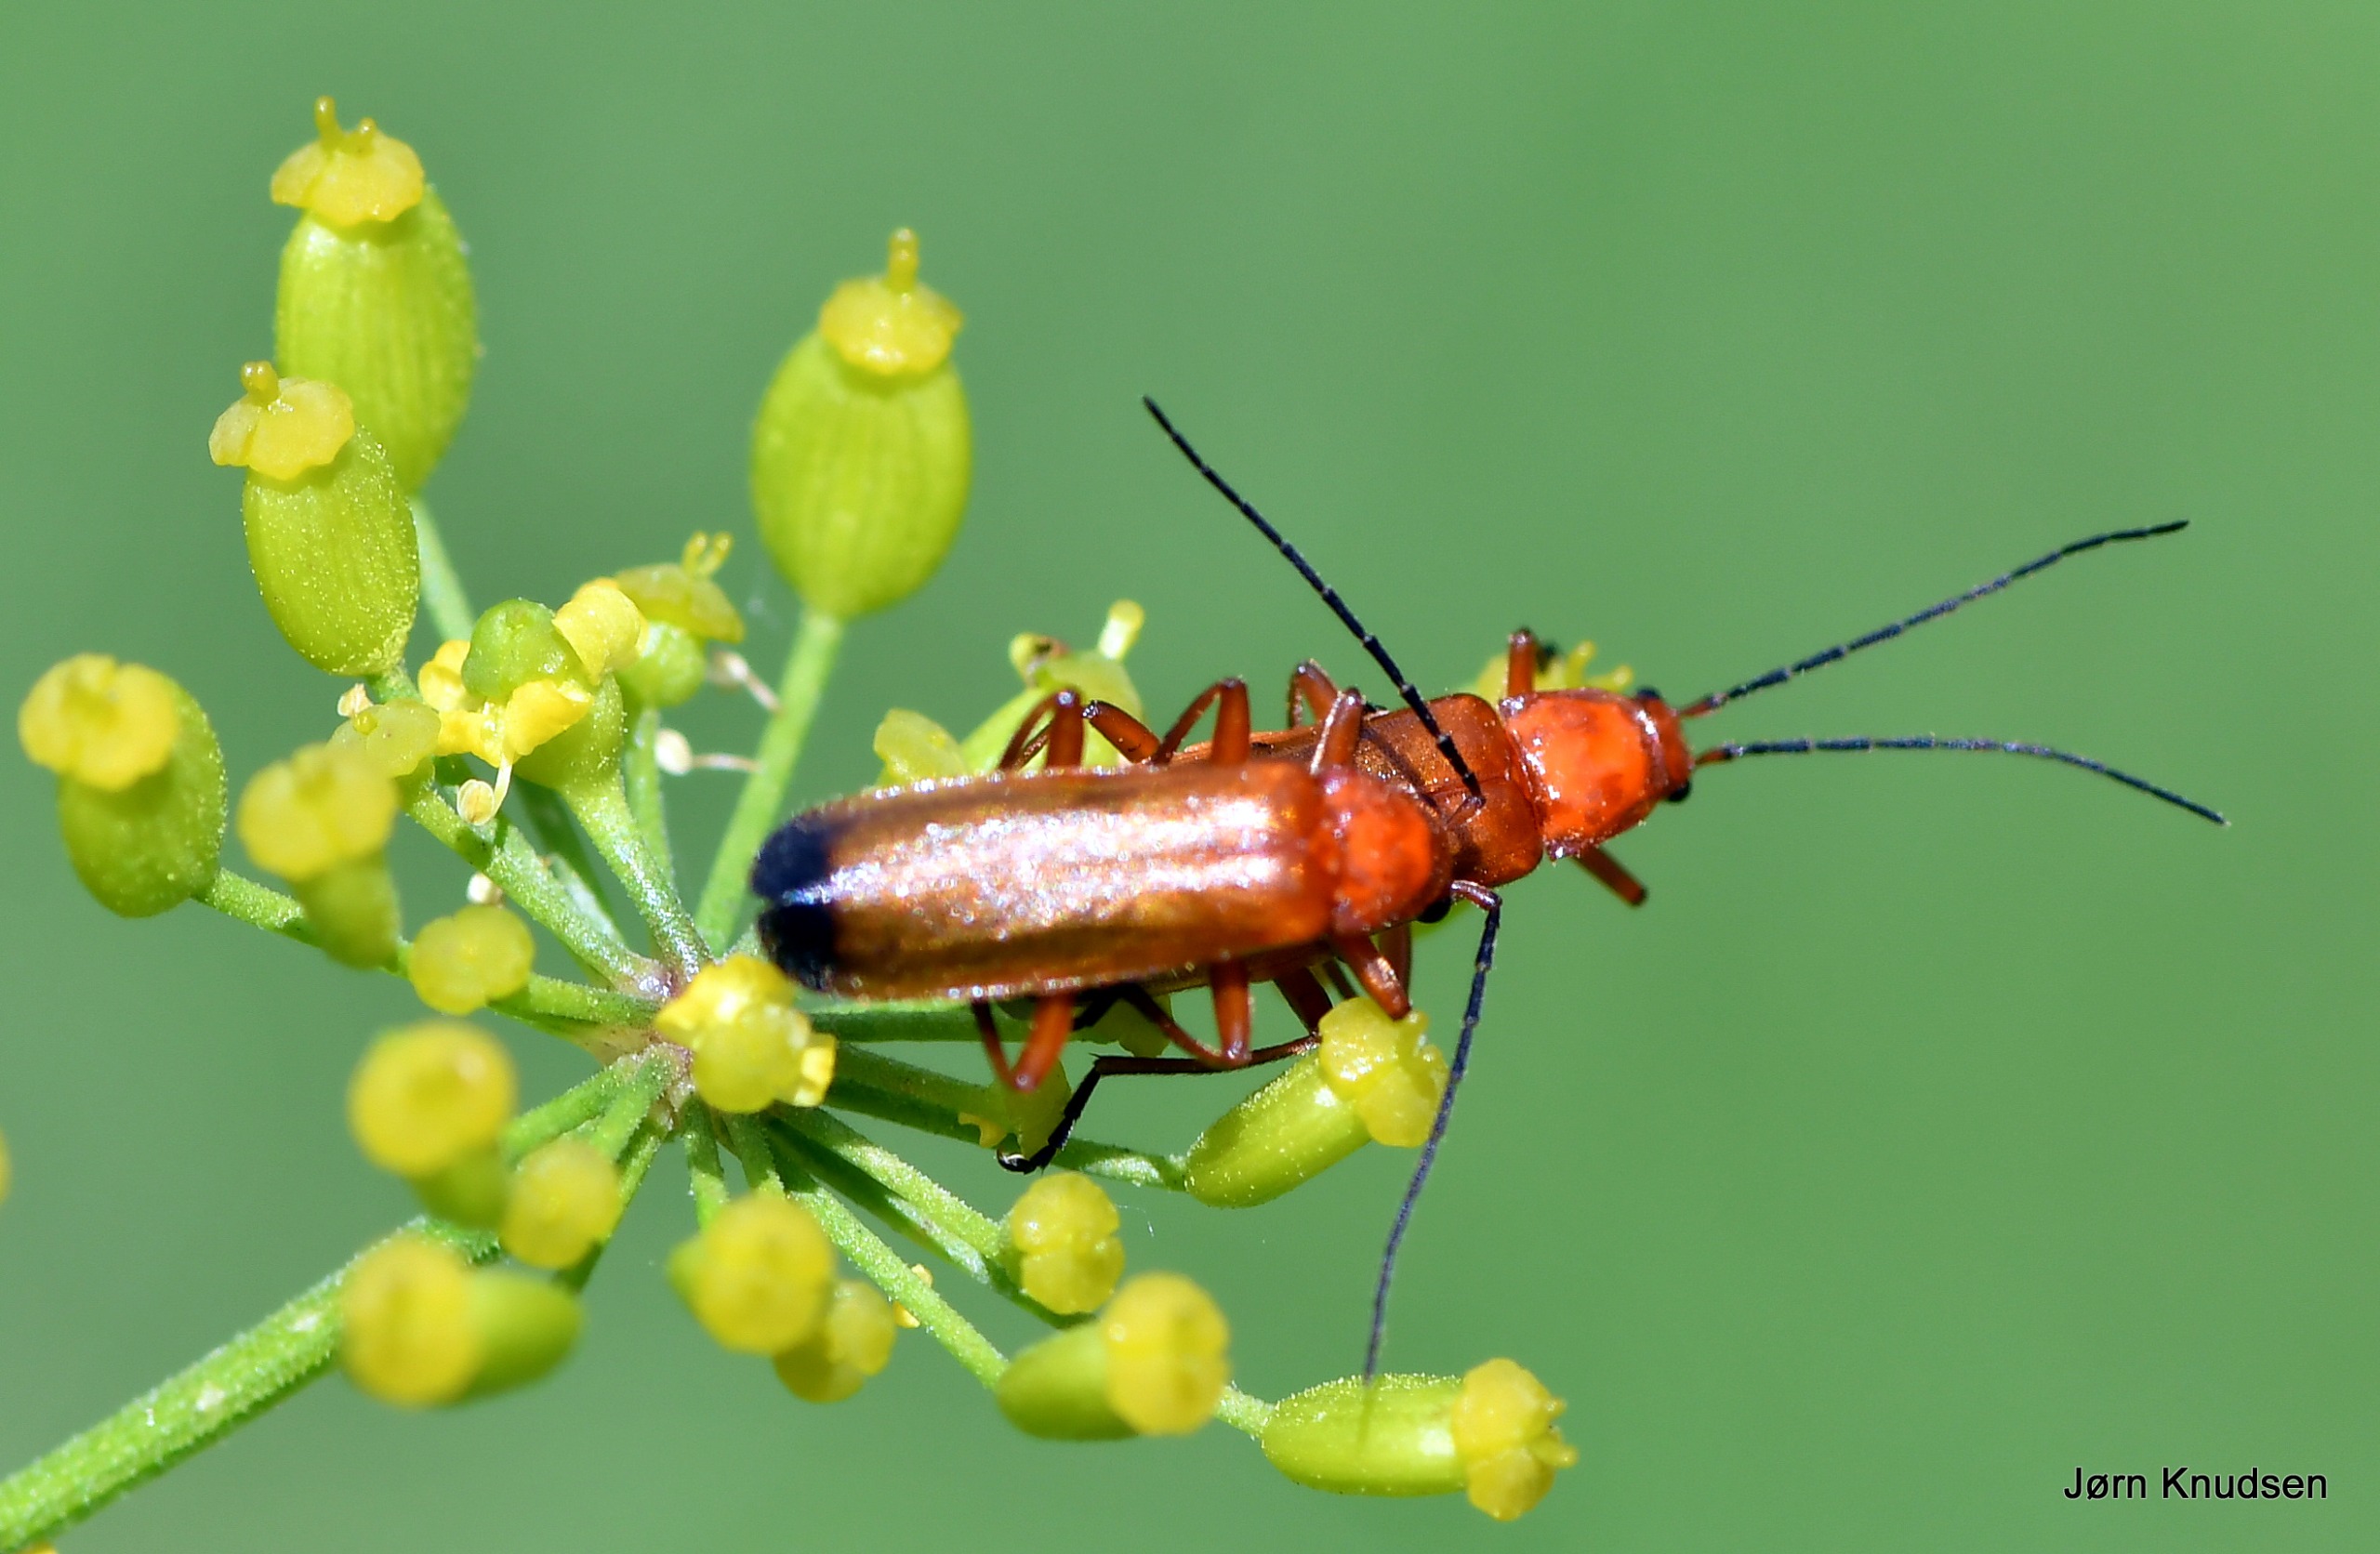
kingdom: Animalia
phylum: Arthropoda
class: Insecta
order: Coleoptera
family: Cantharidae
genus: Rhagonycha
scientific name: Rhagonycha fulva
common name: Præstebille
